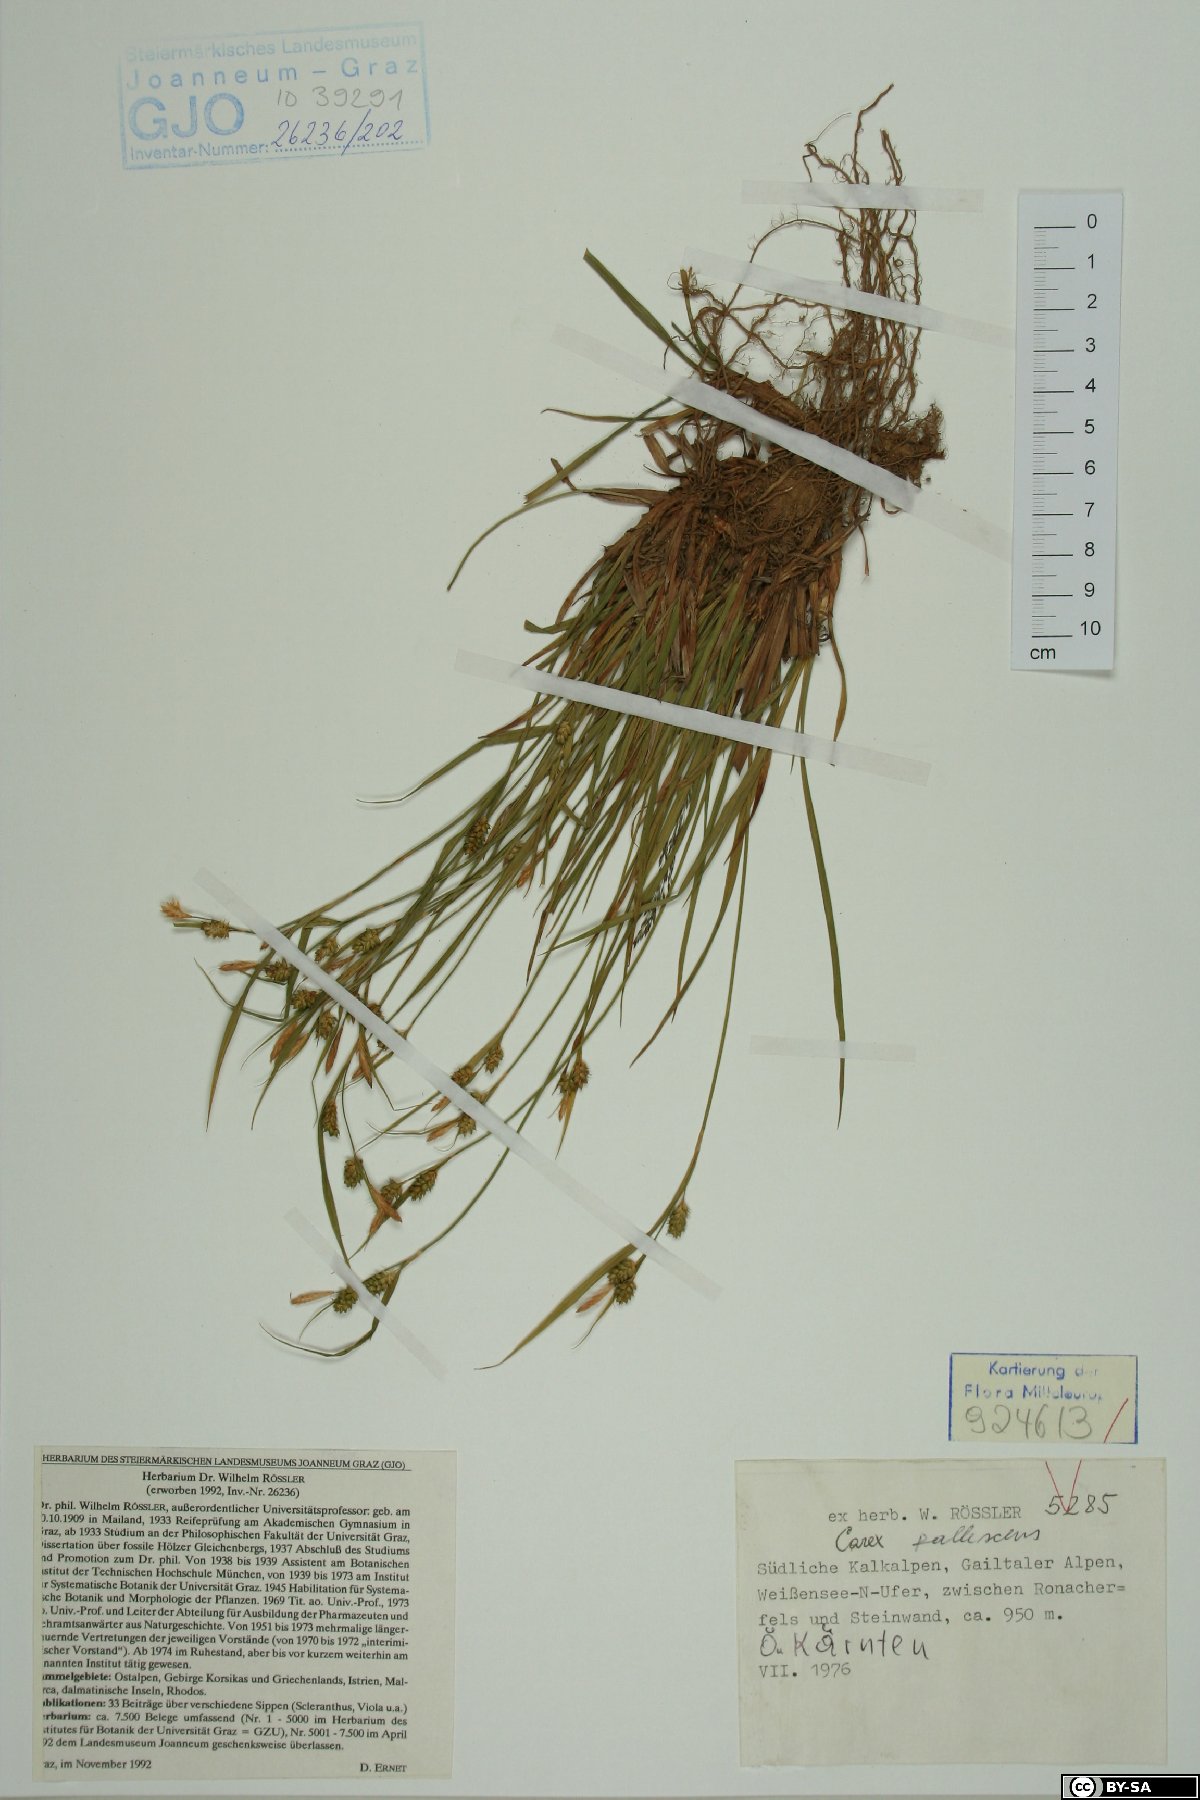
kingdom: Plantae
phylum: Tracheophyta
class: Liliopsida
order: Poales
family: Cyperaceae
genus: Carex
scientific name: Carex pallescens
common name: Pale sedge
